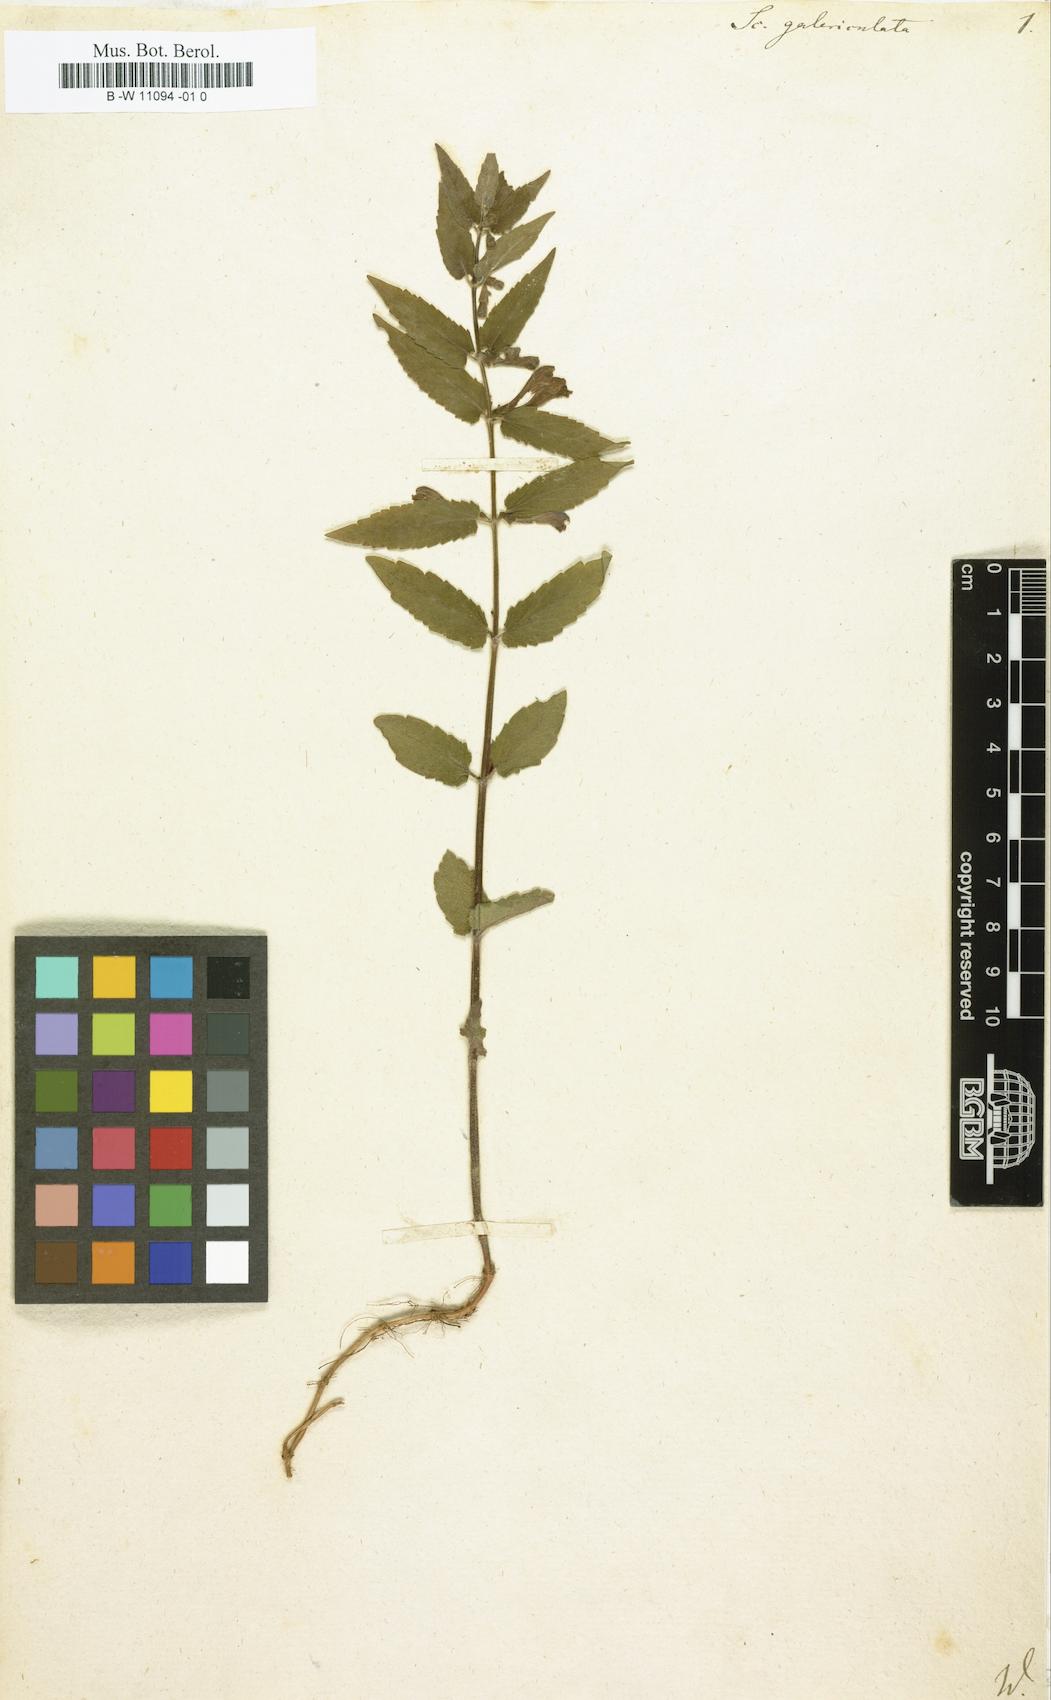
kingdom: Plantae
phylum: Tracheophyta
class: Magnoliopsida
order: Lamiales
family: Lamiaceae
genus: Scutellaria
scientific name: Scutellaria galericulata
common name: Skullcap
